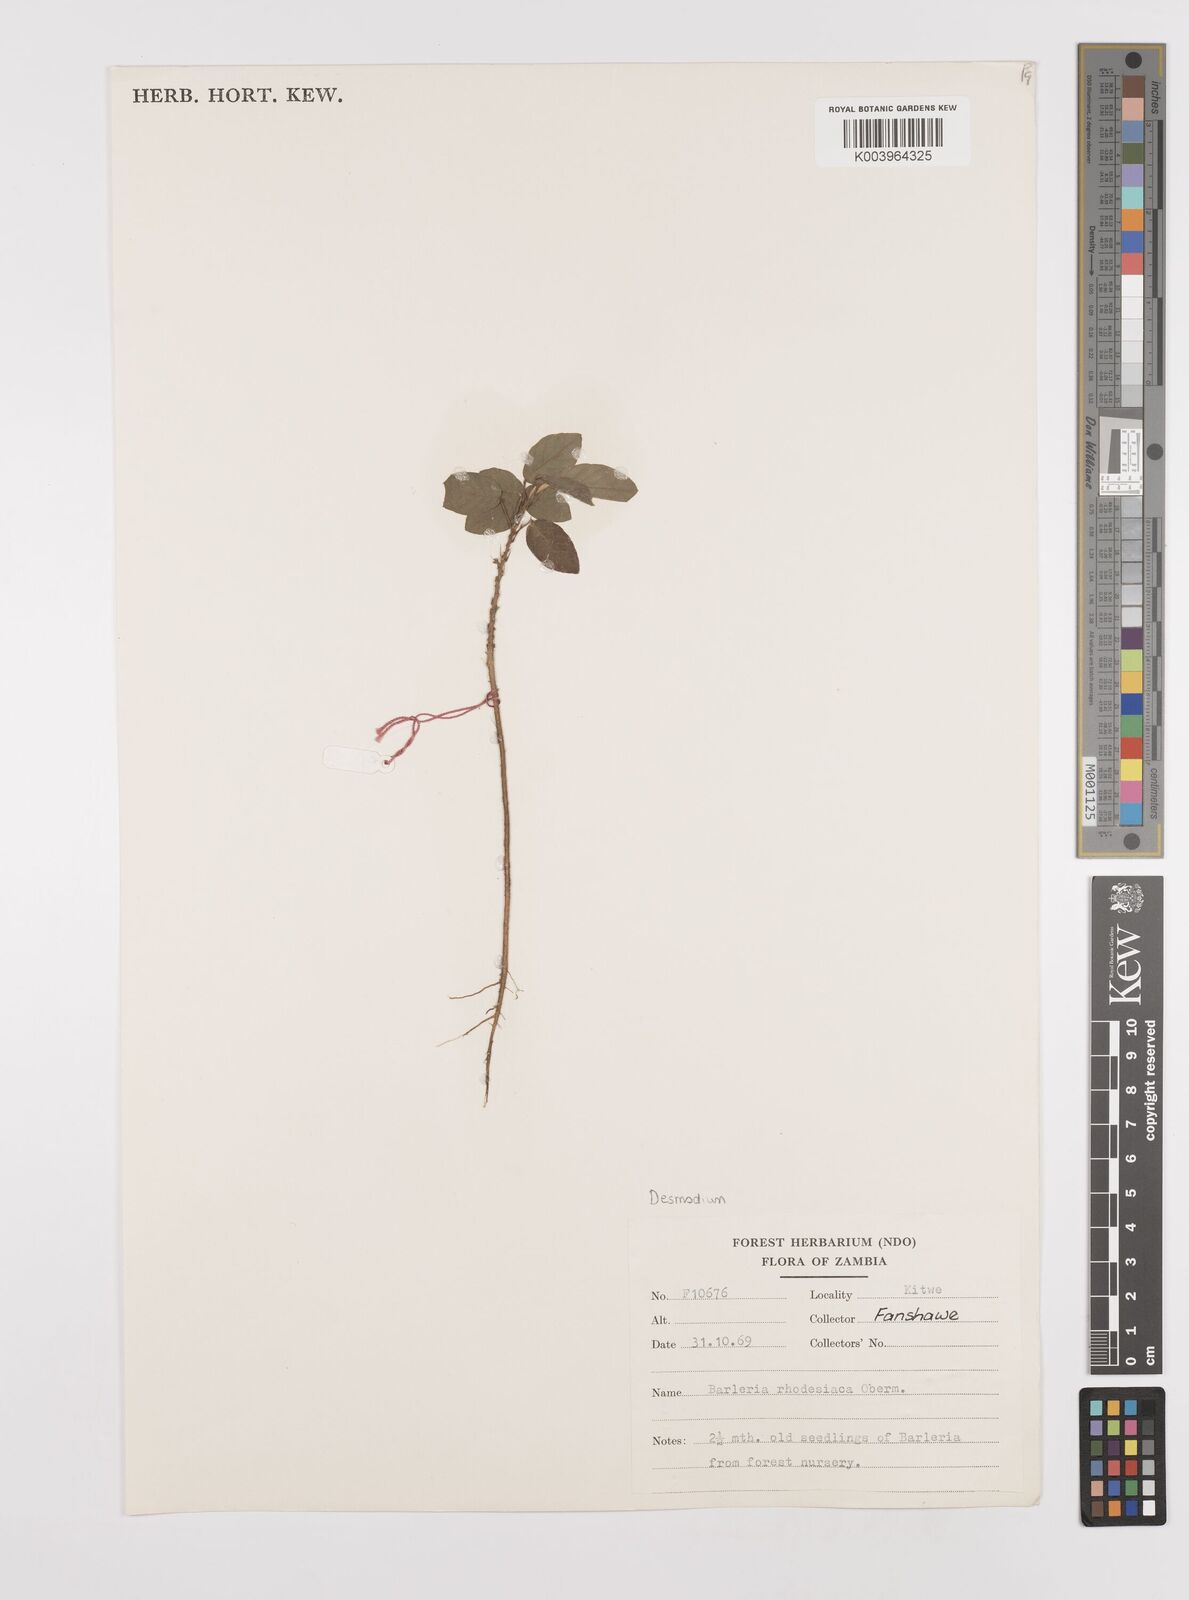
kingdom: Plantae
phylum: Tracheophyta
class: Magnoliopsida
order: Fabales
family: Fabaceae
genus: Desmodium
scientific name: Desmodium
